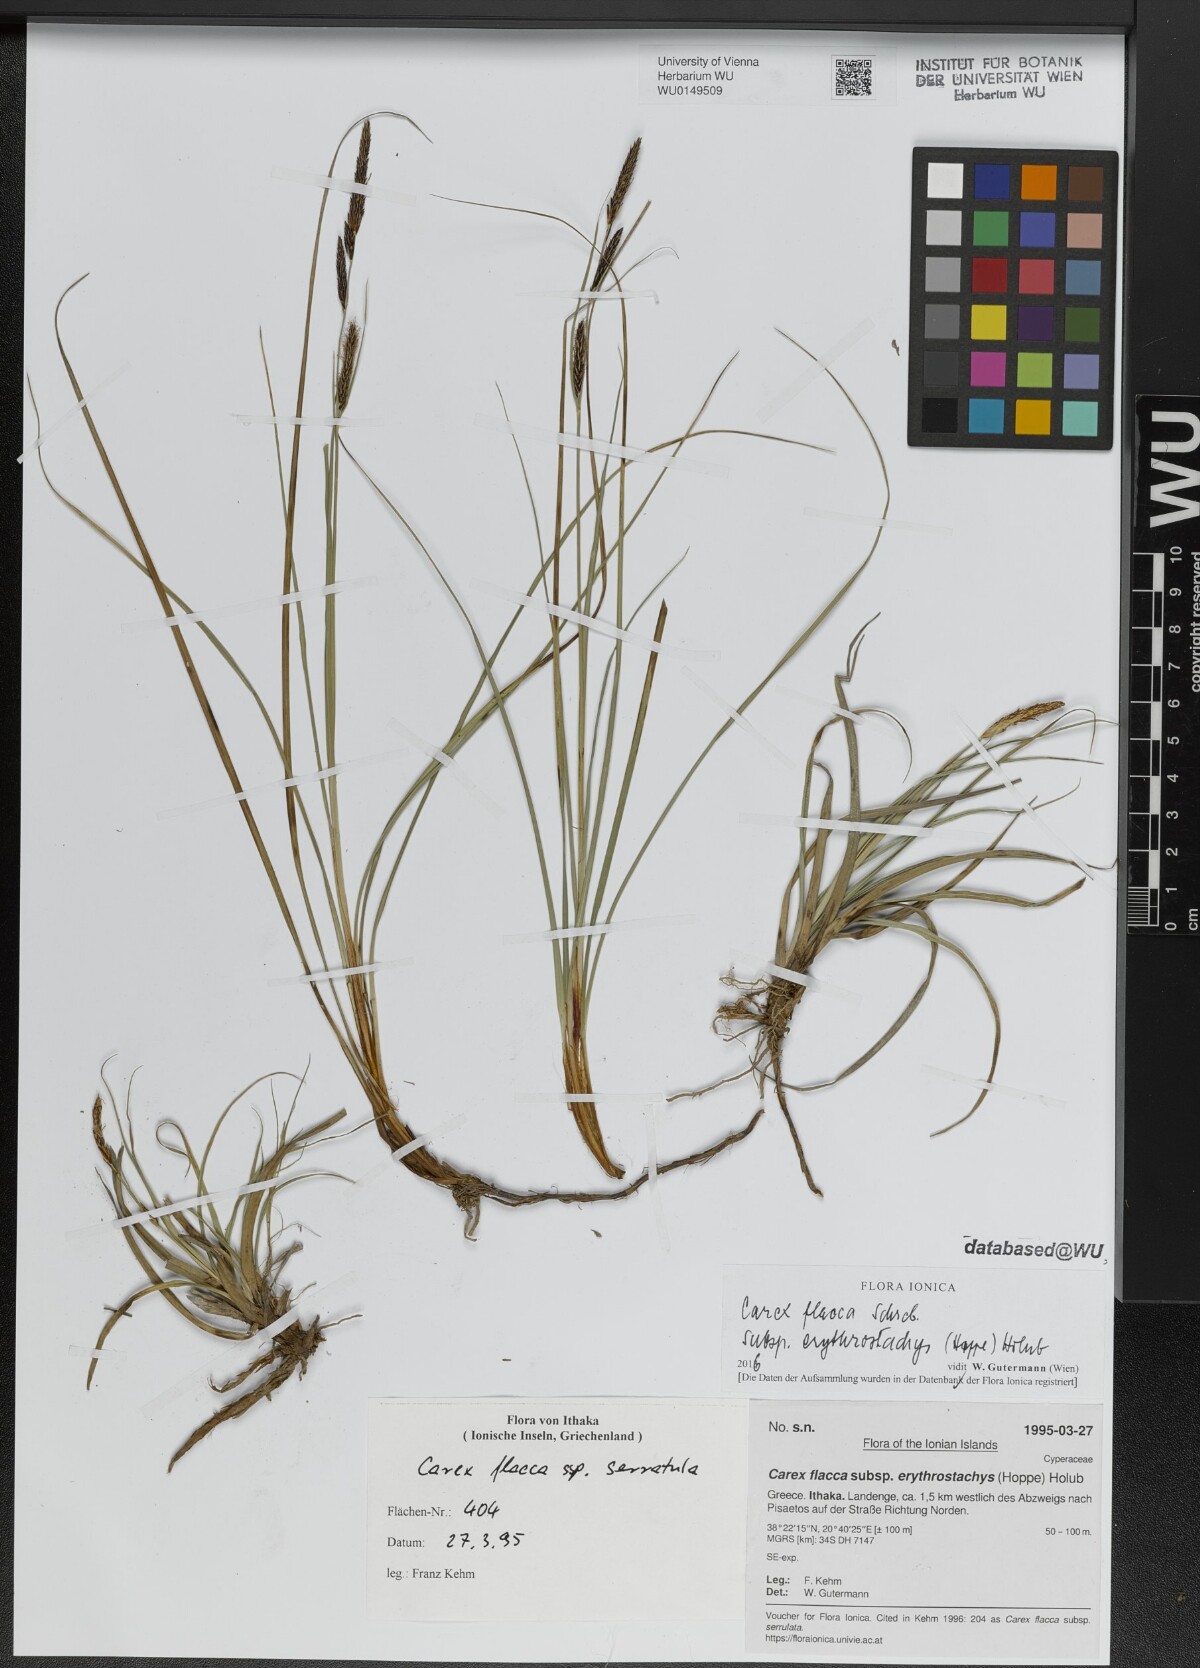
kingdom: Plantae
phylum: Tracheophyta
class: Liliopsida
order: Poales
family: Cyperaceae
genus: Carex
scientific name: Carex flacca
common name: Glaucous sedge
